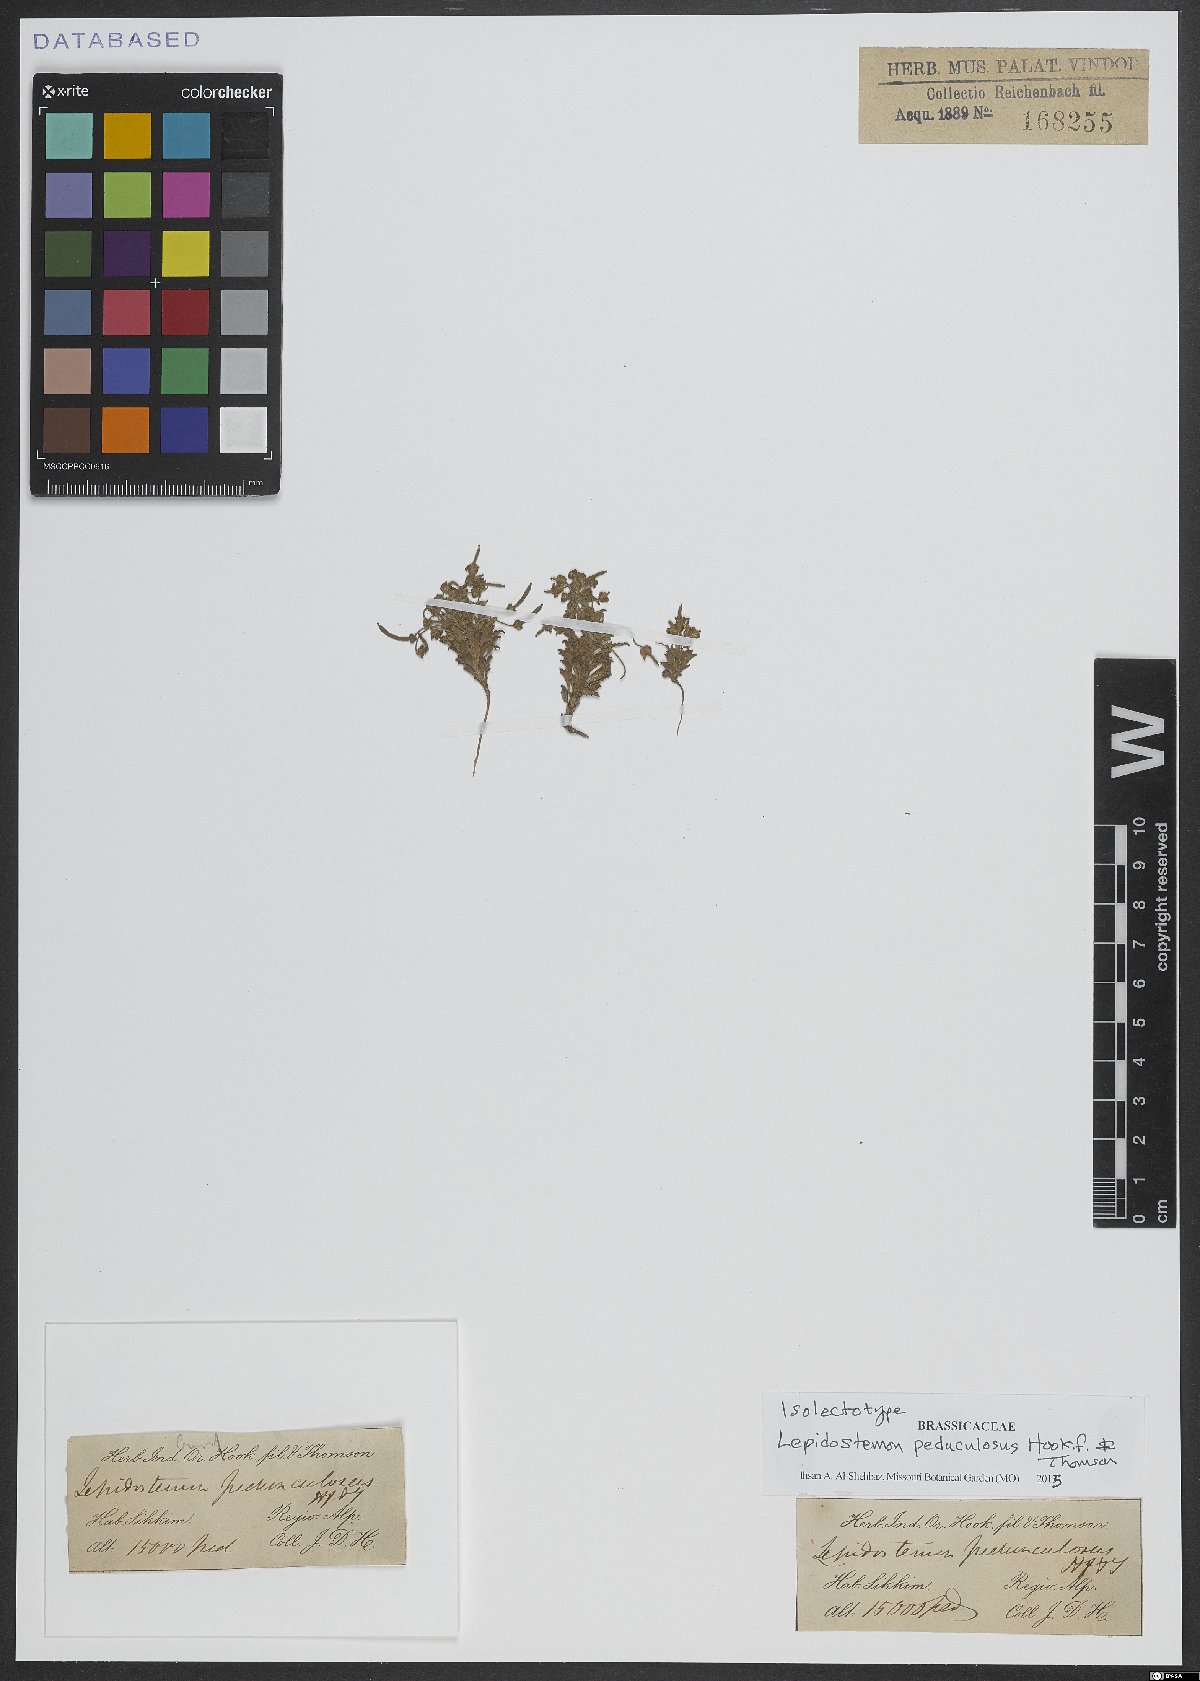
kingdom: Plantae
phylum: Tracheophyta
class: Magnoliopsida
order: Brassicales
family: Brassicaceae
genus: Lepidostemon
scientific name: Lepidostemon pedunculosus
